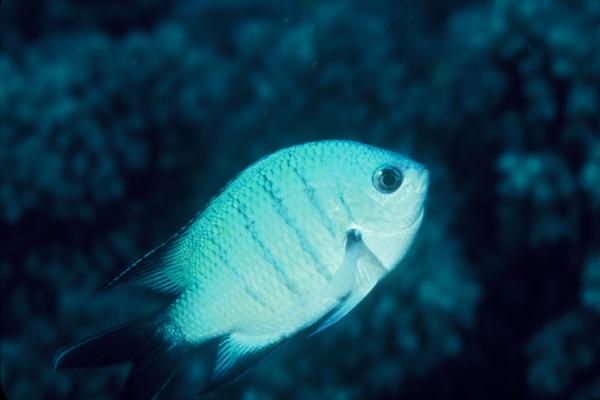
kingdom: Animalia
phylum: Chordata
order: Perciformes
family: Pomacentridae
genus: Abudefduf
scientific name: Abudefduf whitleyi
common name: Whitley's seargent
